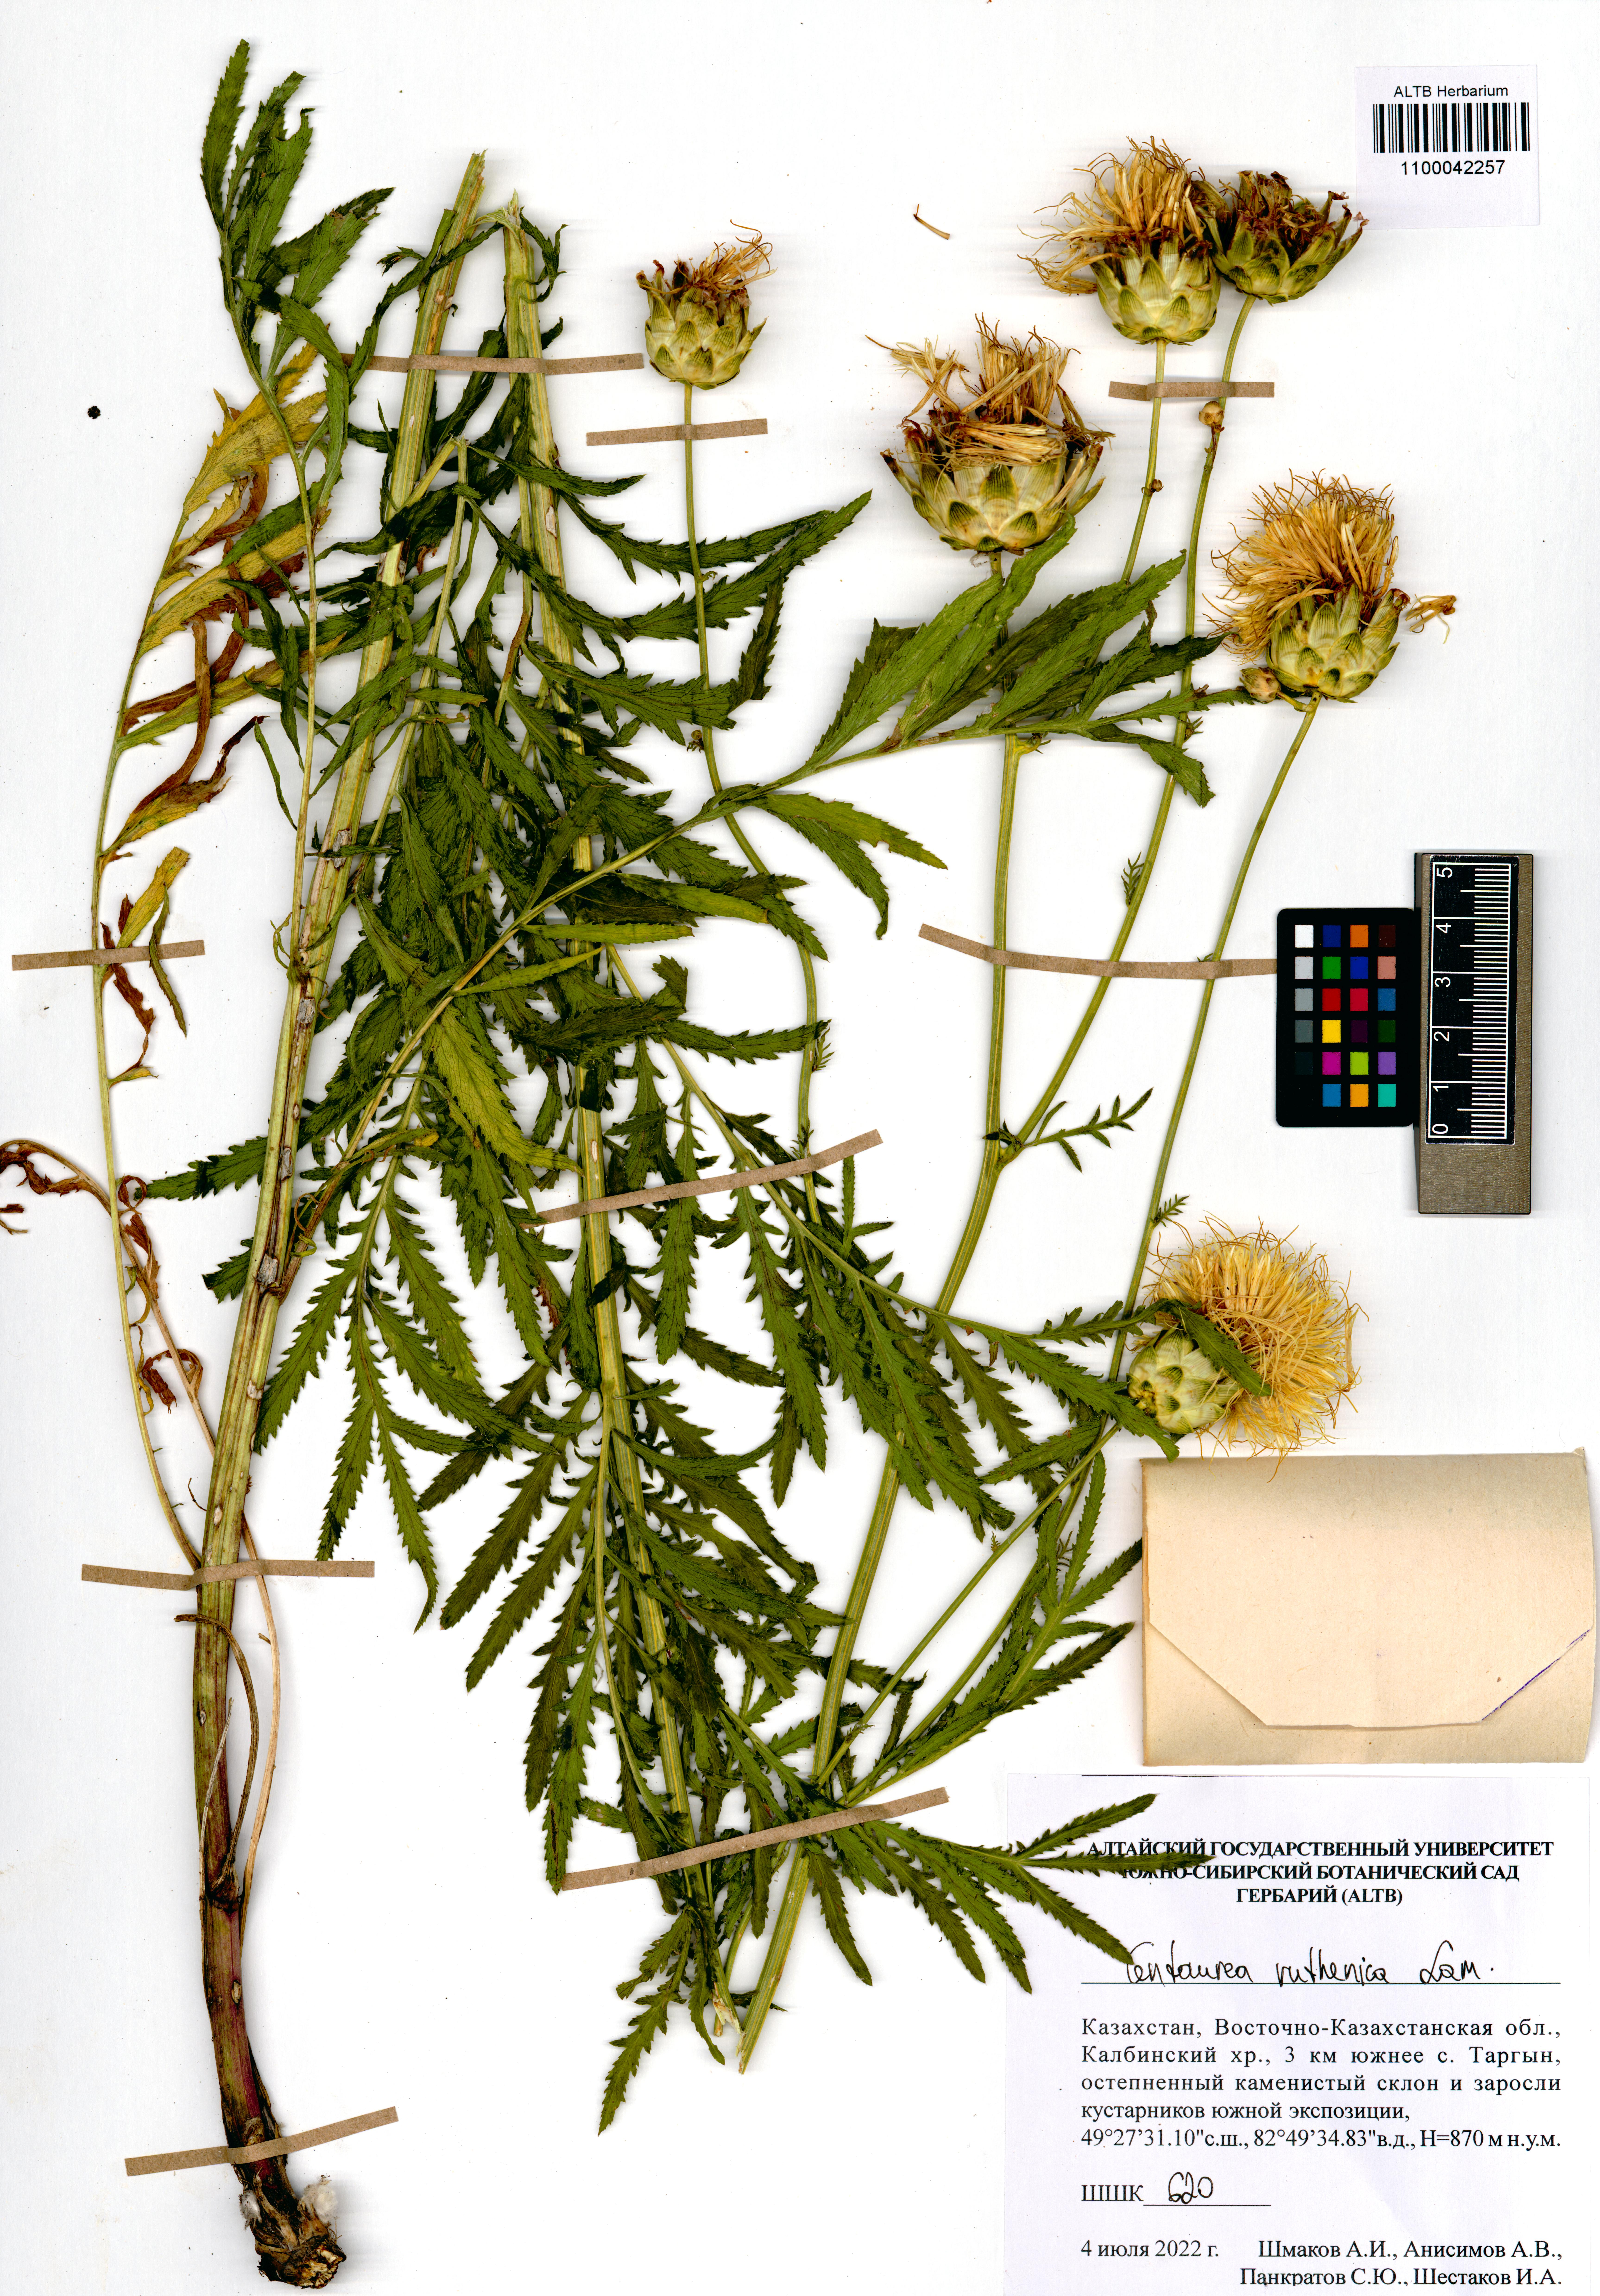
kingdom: Plantae
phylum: Tracheophyta
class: Magnoliopsida
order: Asterales
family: Asteraceae
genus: Rhaponticoides
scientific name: Rhaponticoides ruthenica
